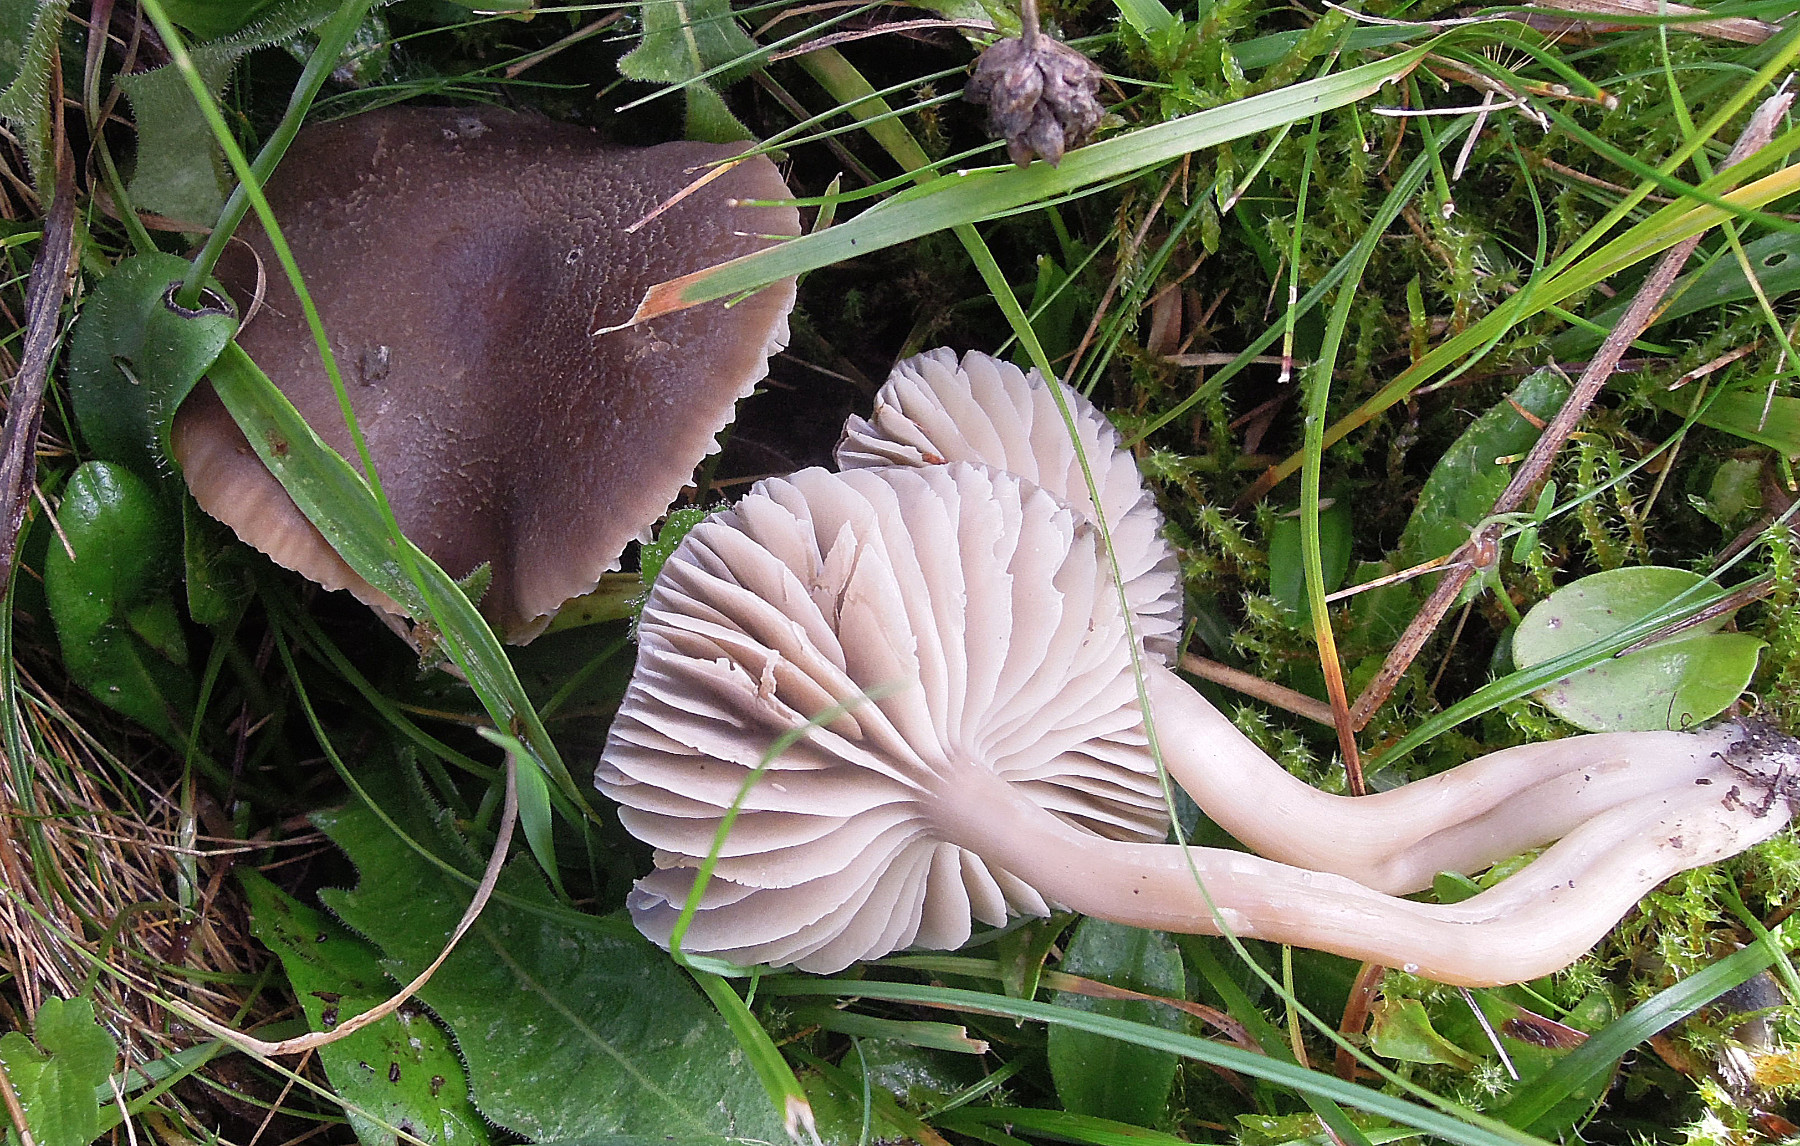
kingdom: Fungi
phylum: Basidiomycota
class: Agaricomycetes
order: Agaricales
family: Hygrophoraceae
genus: Neohygrocybe
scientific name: Neohygrocybe nitrata
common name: stinkende vokshat
